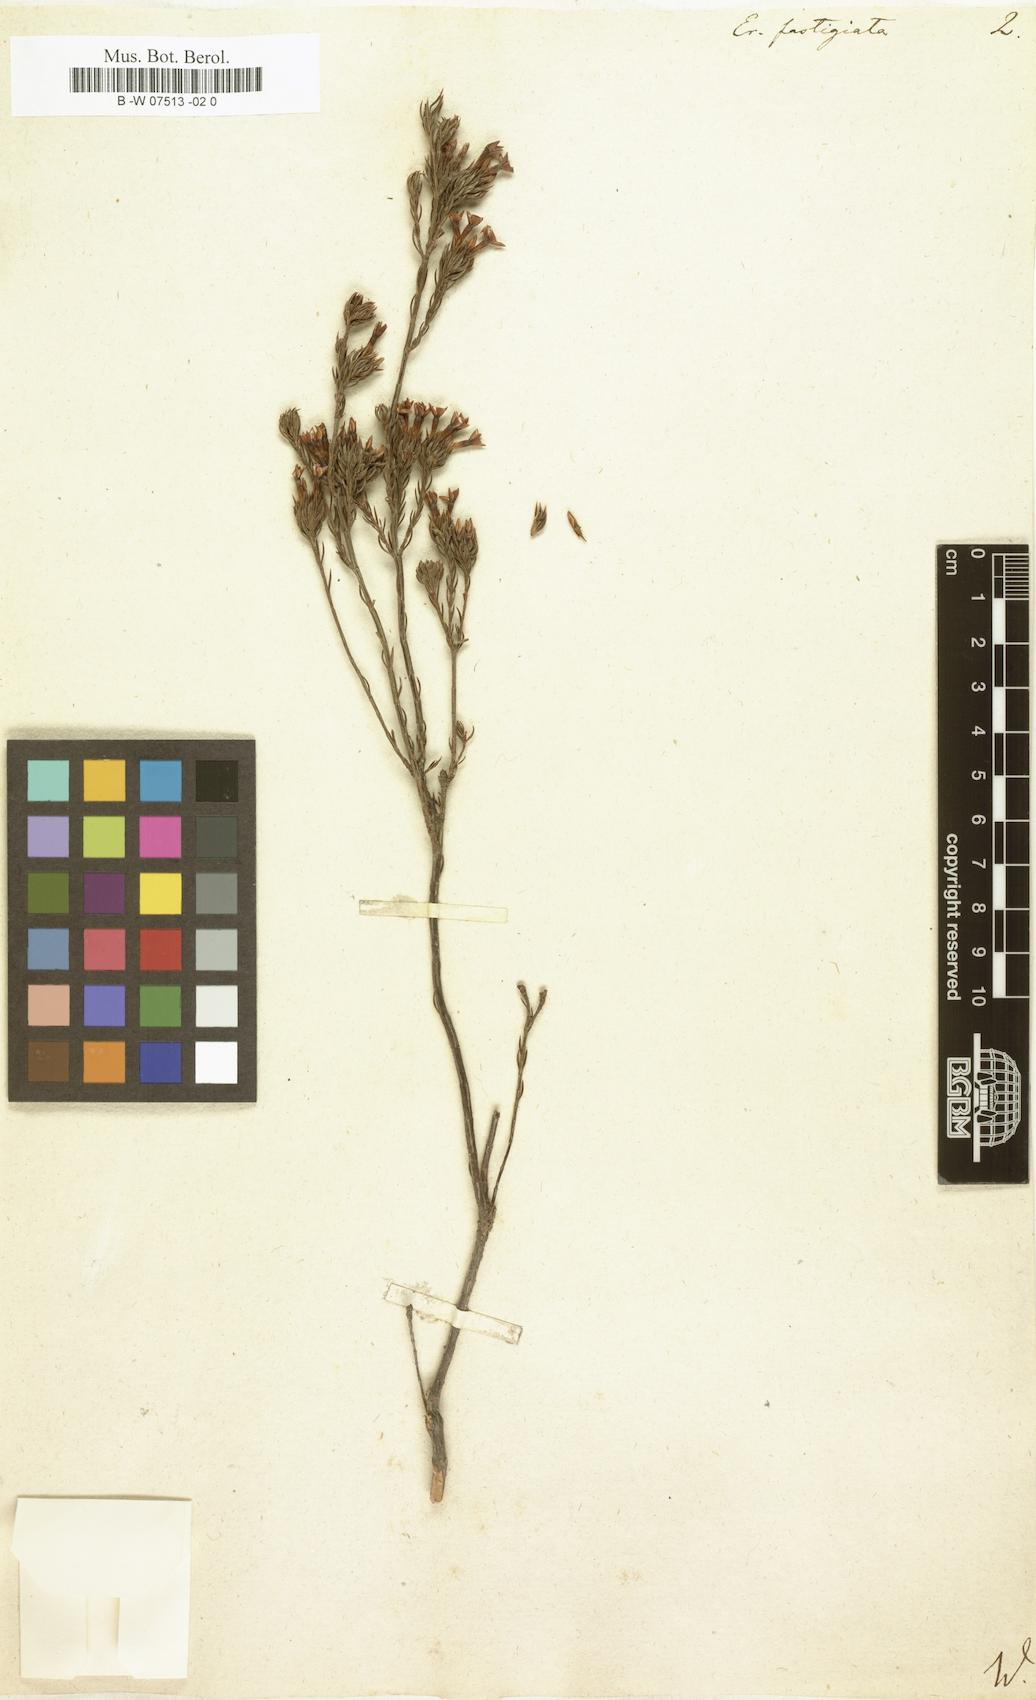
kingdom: Plantae
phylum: Tracheophyta
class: Magnoliopsida
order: Ericales
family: Ericaceae
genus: Erica
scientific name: Erica fastigiata
